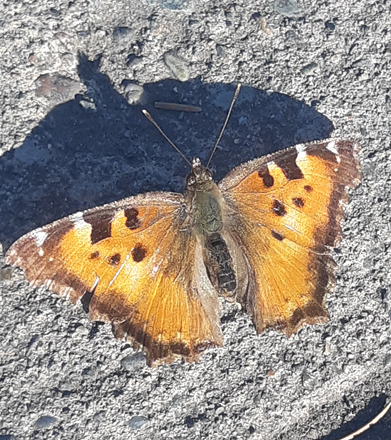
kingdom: Animalia
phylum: Arthropoda
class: Insecta
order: Lepidoptera
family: Nymphalidae
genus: Nymphalis
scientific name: Nymphalis californica
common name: California Tortoiseshell
